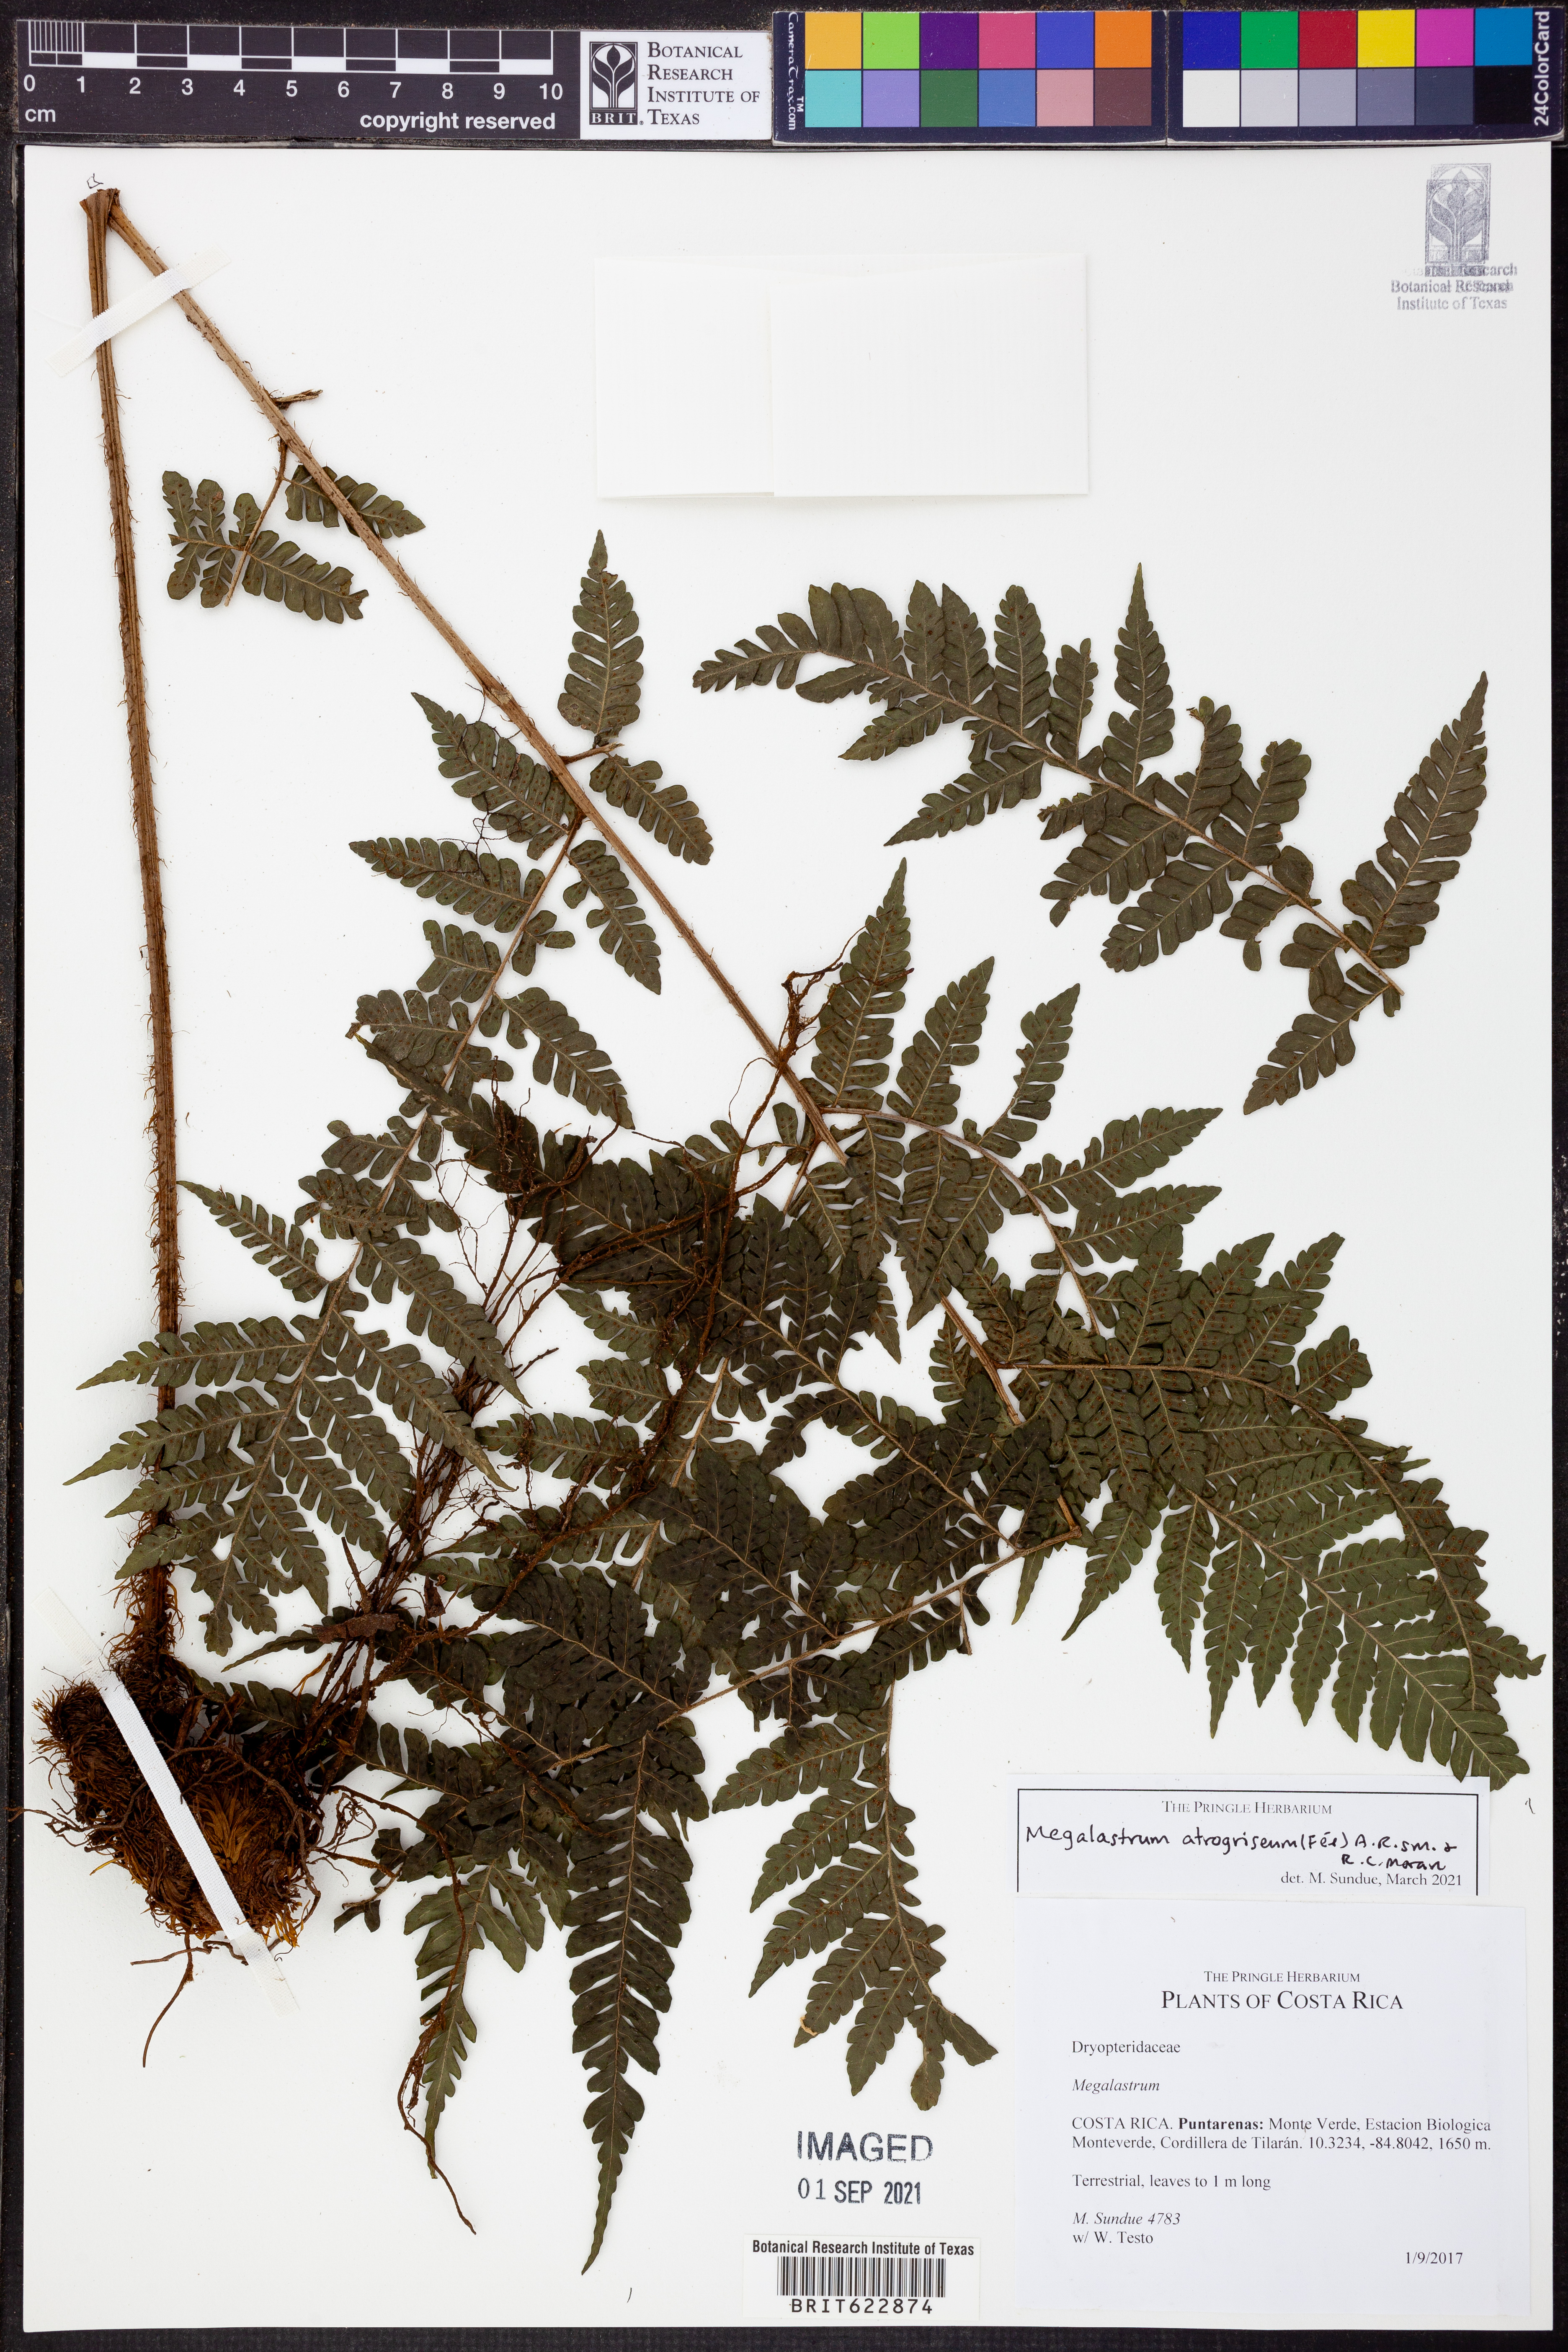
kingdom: Plantae
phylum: Tracheophyta
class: Polypodiopsida
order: Polypodiales
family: Dryopteridaceae
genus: Megalastrum
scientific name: Megalastrum atrogriseum
